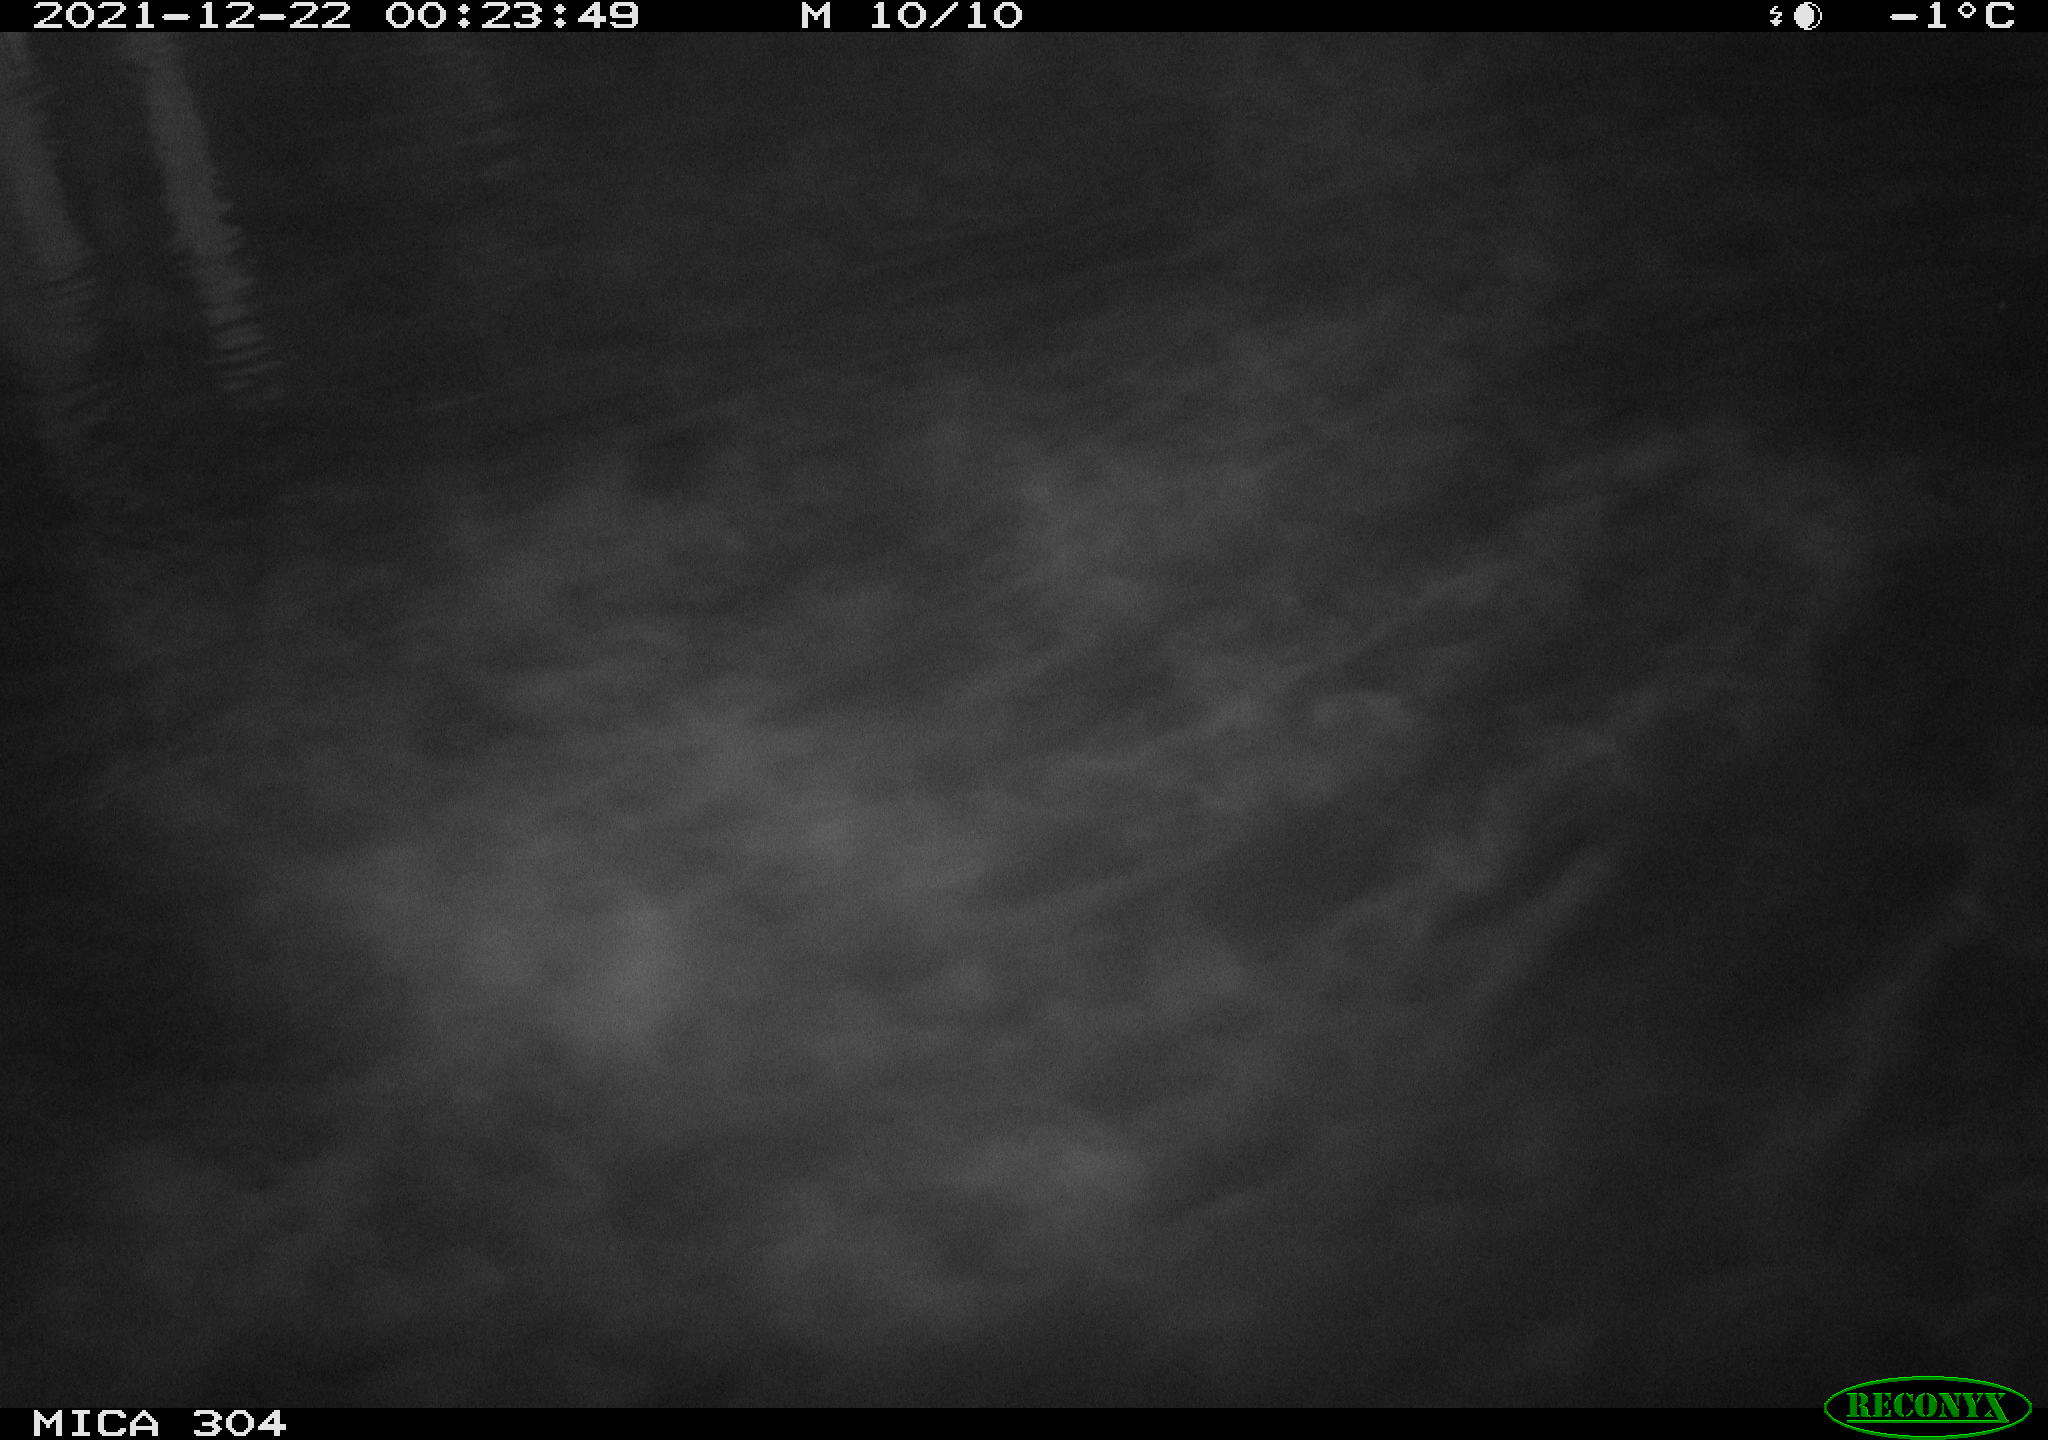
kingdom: Animalia
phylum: Chordata
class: Mammalia
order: Rodentia
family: Muridae
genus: Rattus
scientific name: Rattus norvegicus
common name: Brown rat
